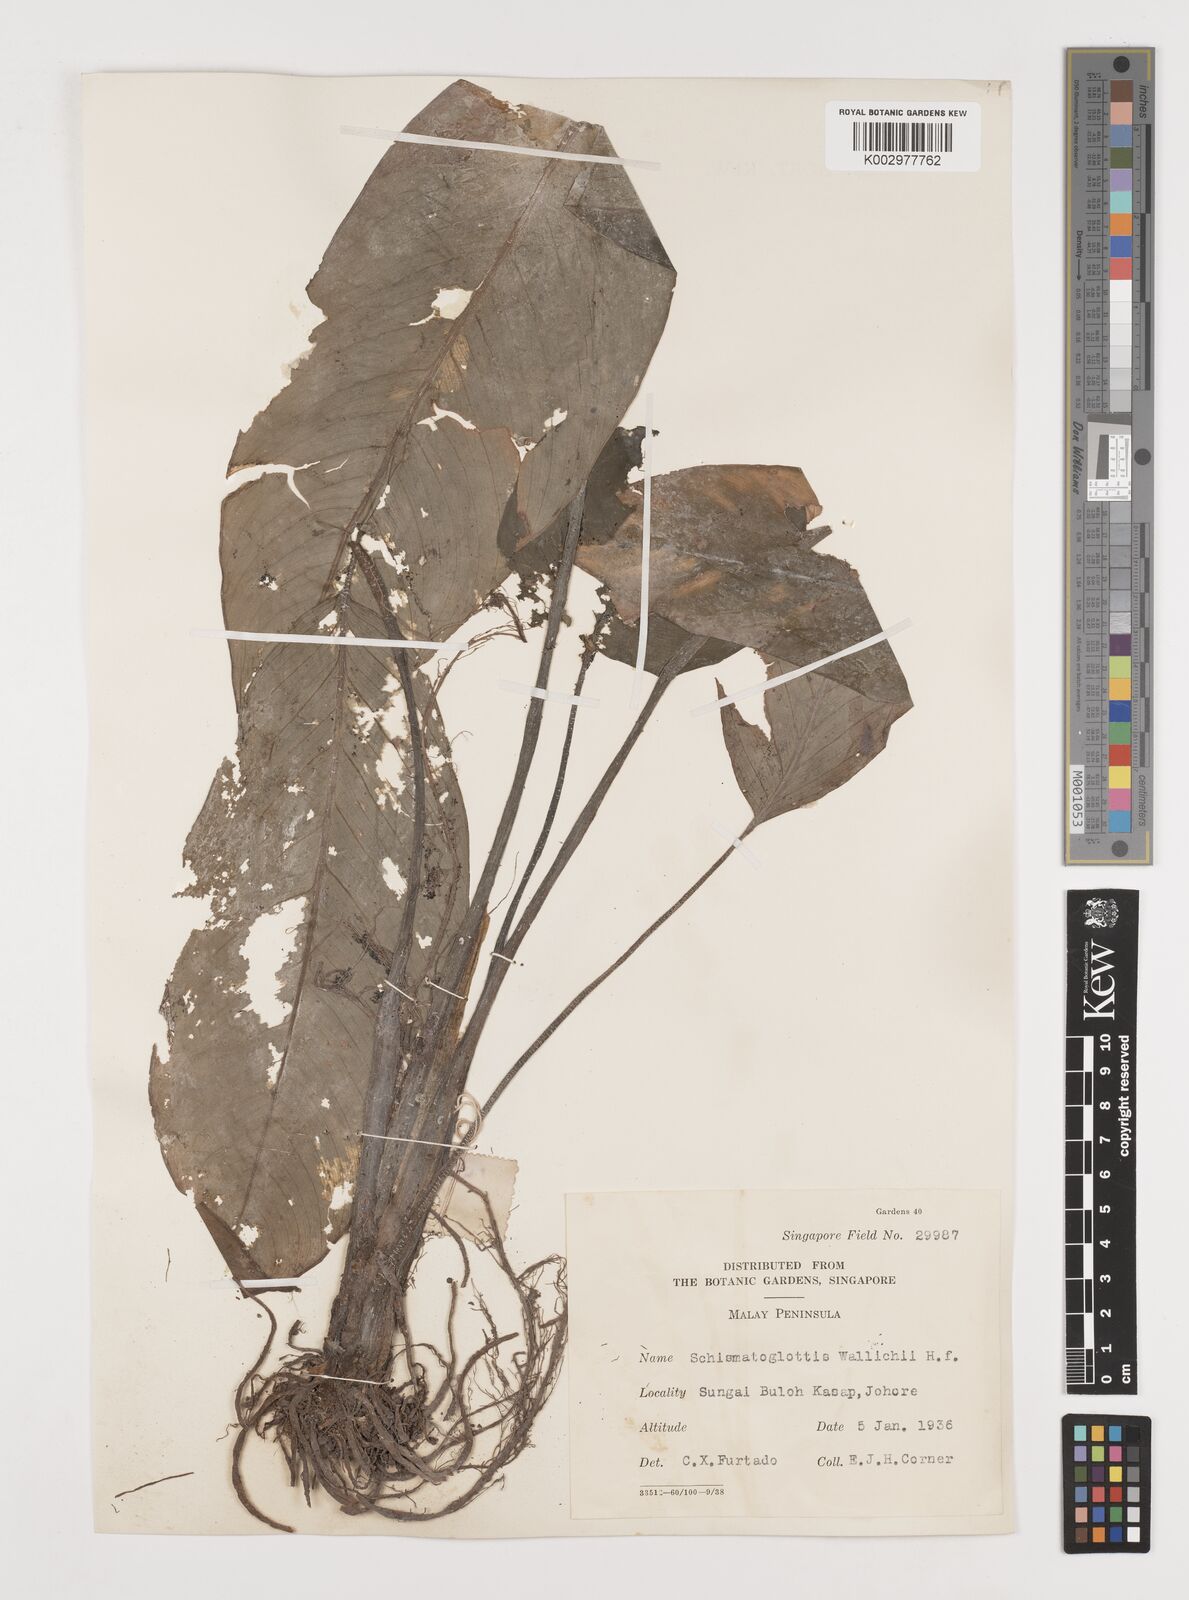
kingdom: Plantae
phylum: Tracheophyta
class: Liliopsida
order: Alismatales
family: Araceae
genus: Schismatoglottis
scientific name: Schismatoglottis wallichii
